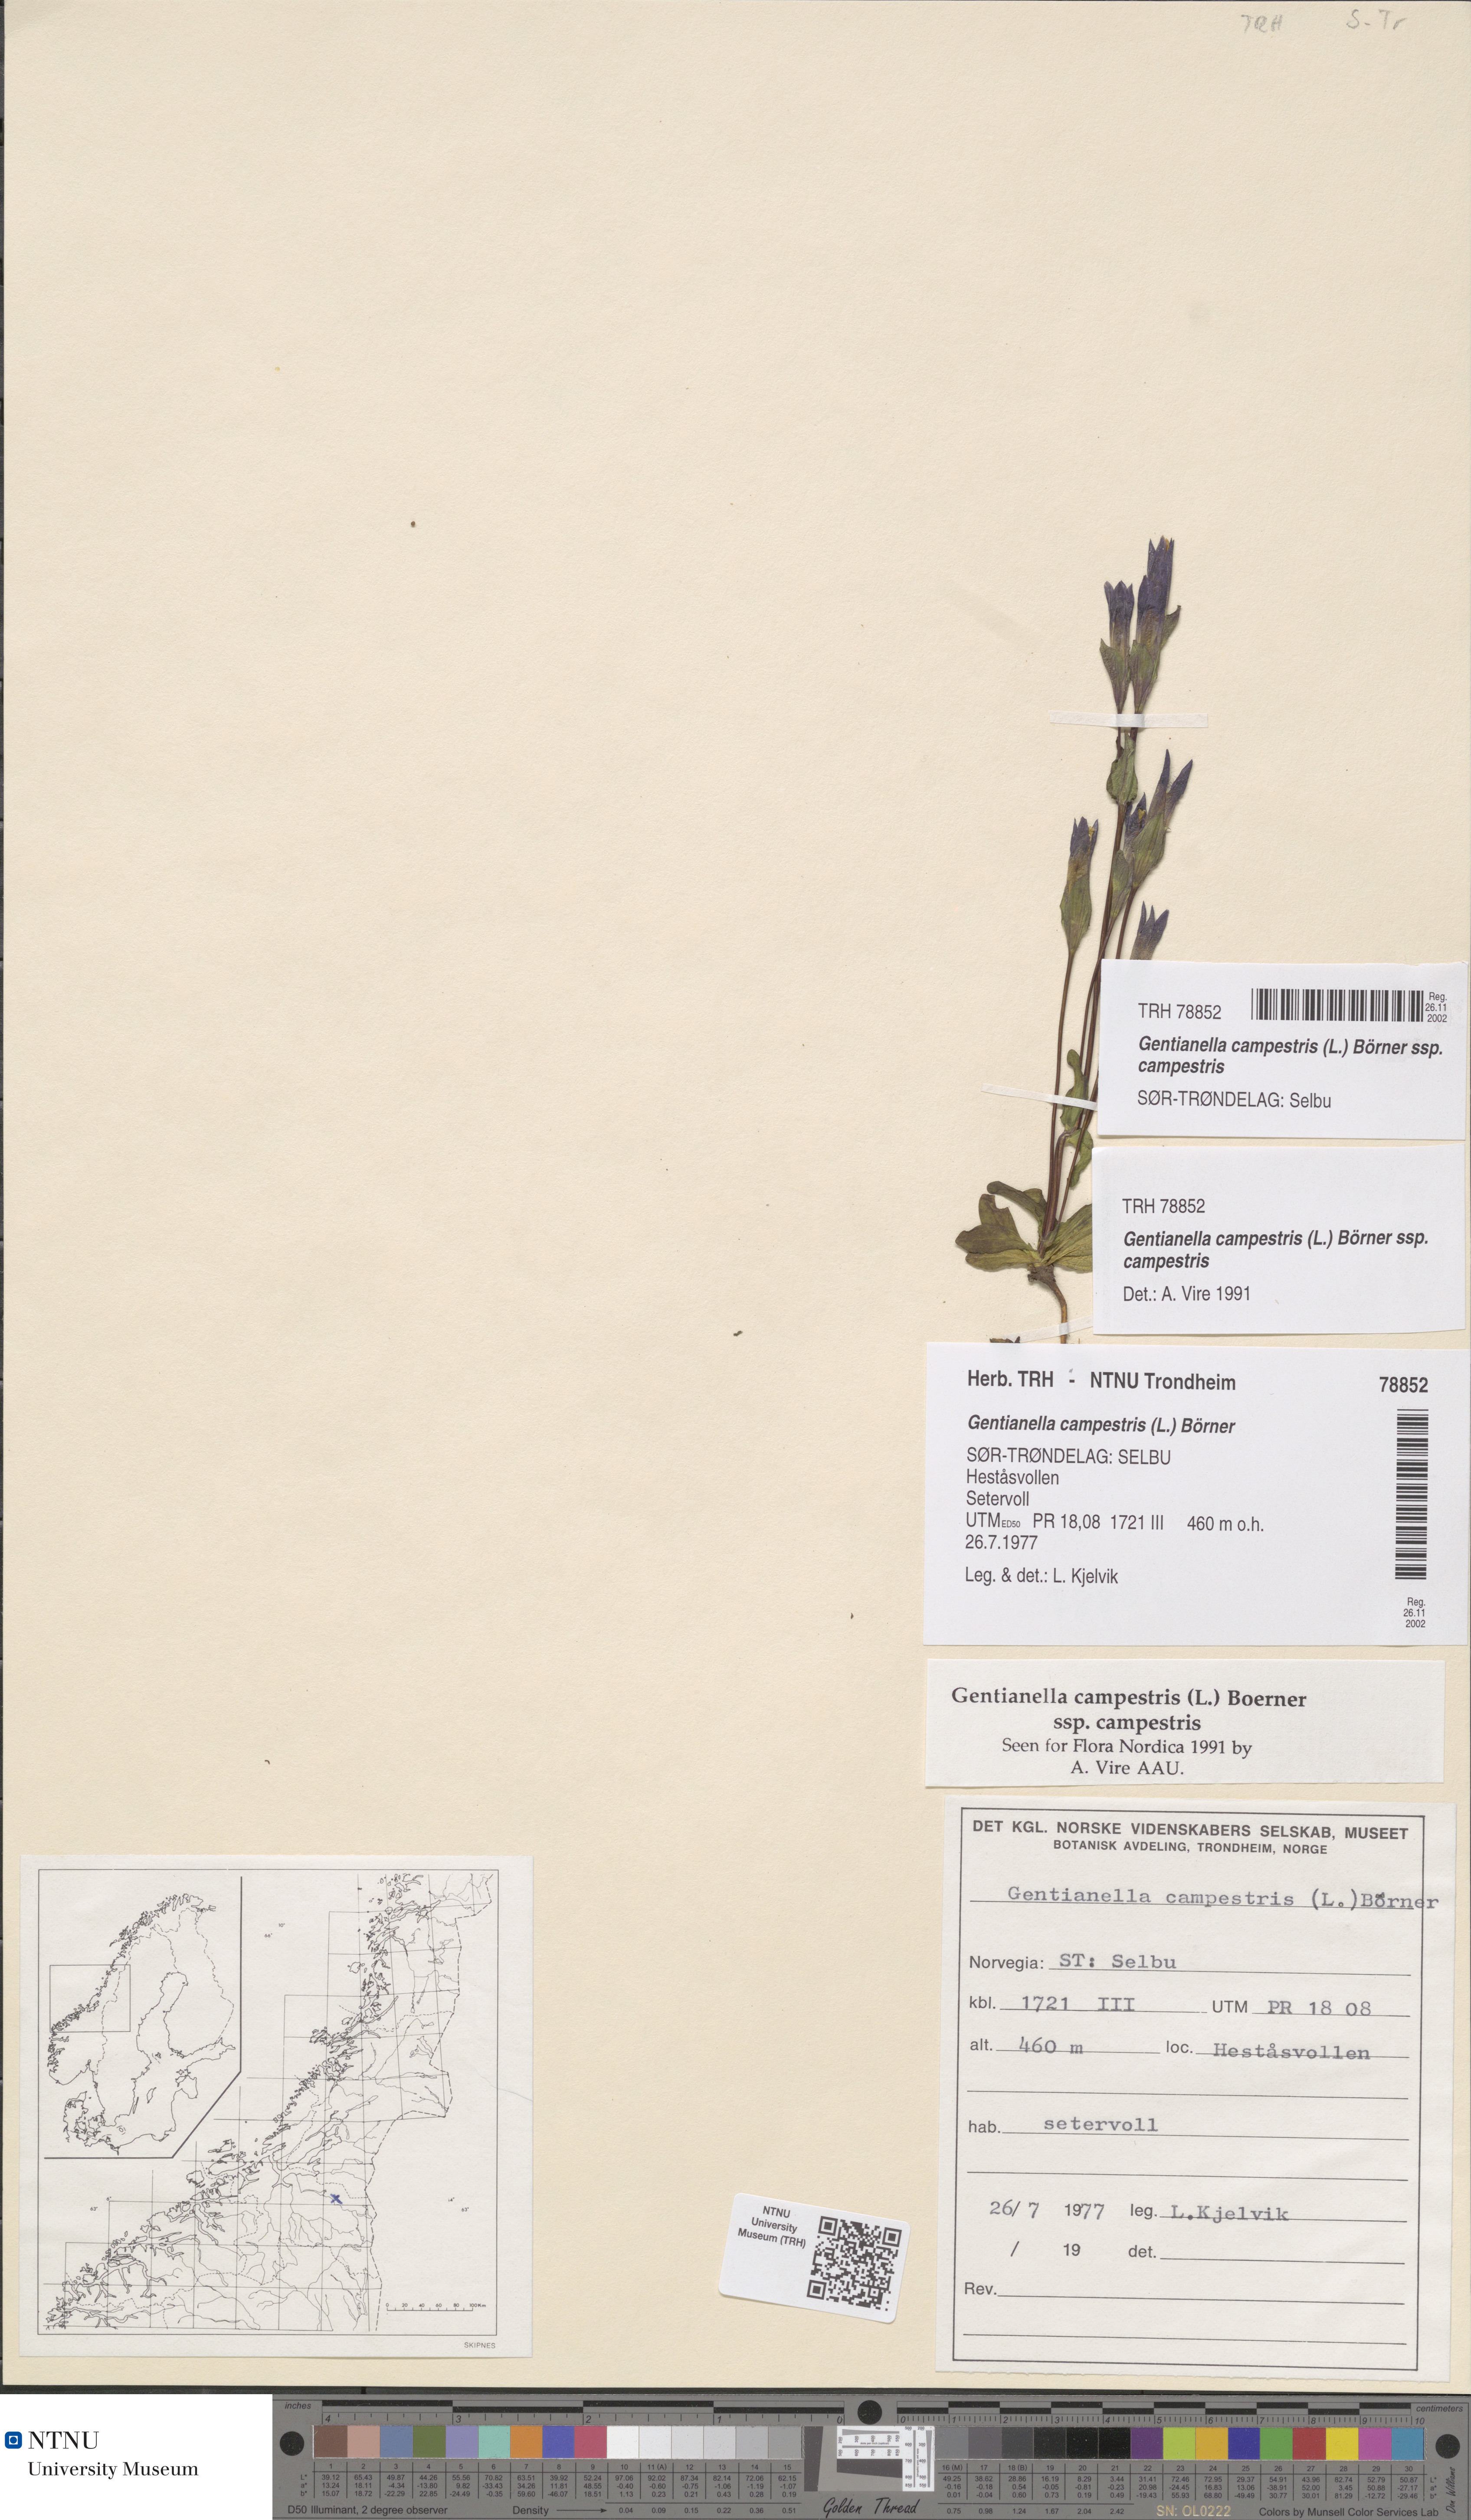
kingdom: Plantae
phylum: Tracheophyta
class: Magnoliopsida
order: Gentianales
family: Gentianaceae
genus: Gentianella
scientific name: Gentianella campestris
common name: Field gentian
